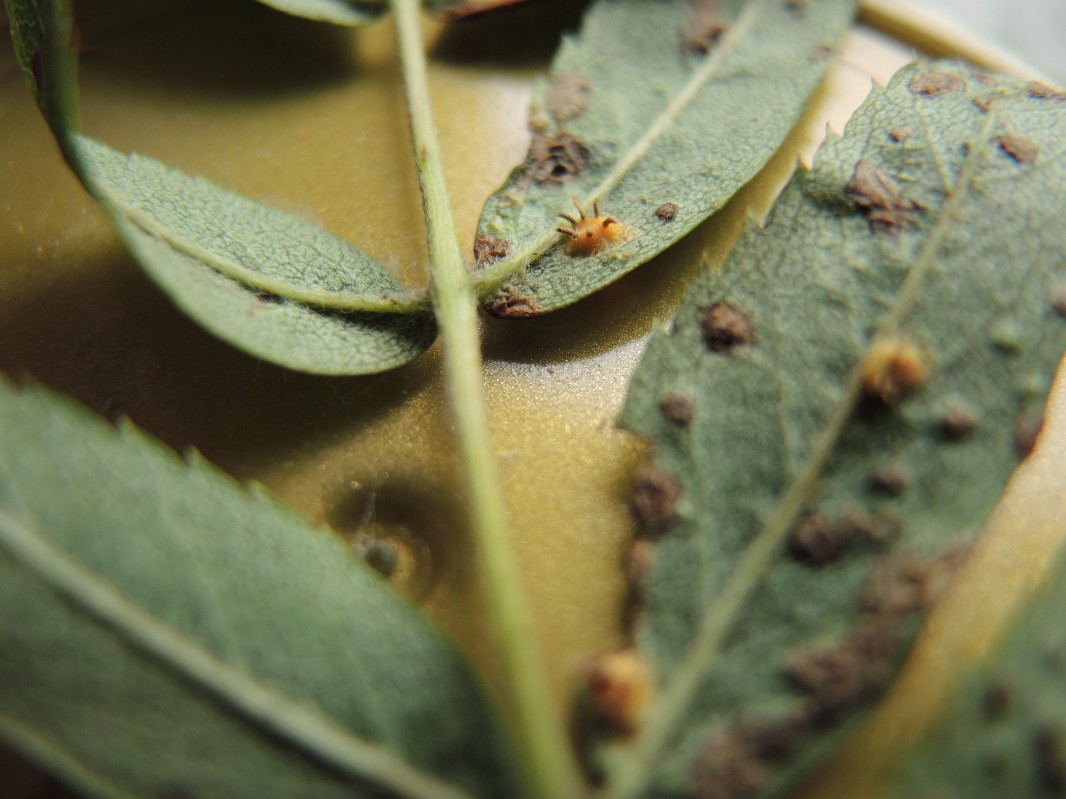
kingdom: Fungi
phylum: Basidiomycota
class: Pucciniomycetes
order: Pucciniales
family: Gymnosporangiaceae
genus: Gymnosporangium
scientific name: Gymnosporangium cornutum
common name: rønnehorn-bævrerust
